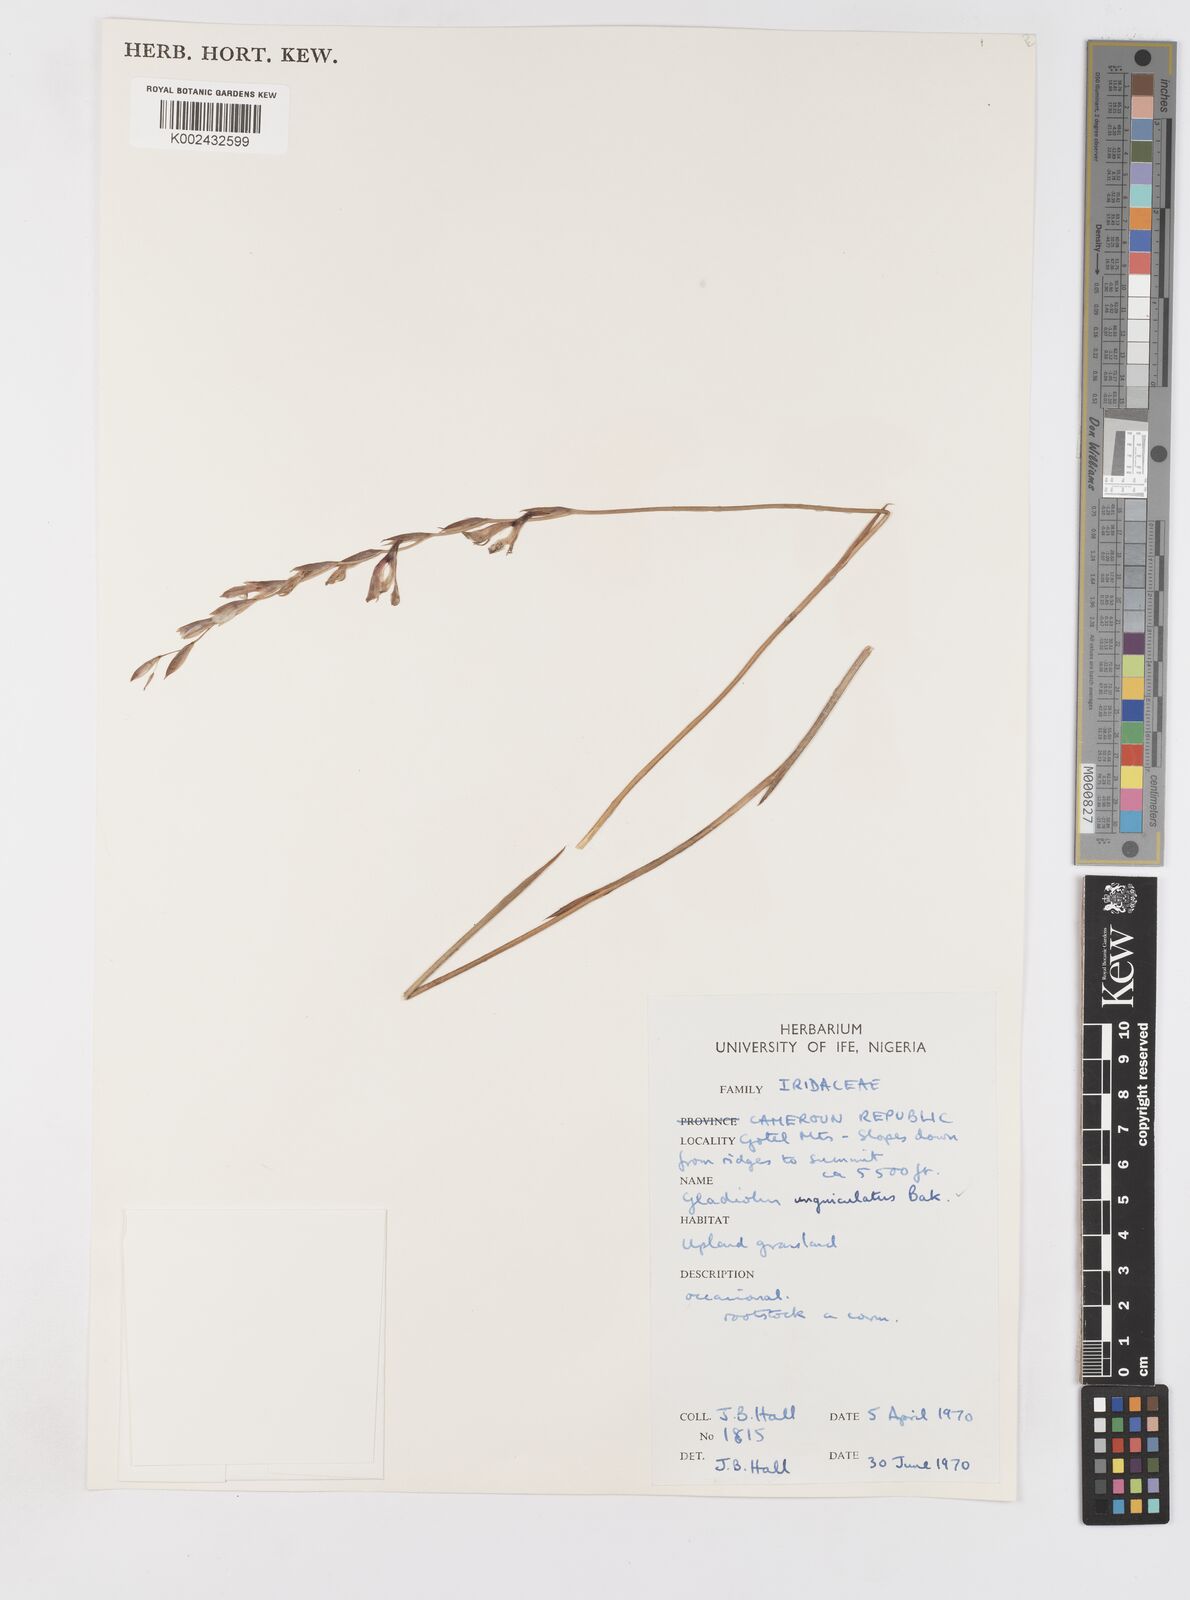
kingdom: Plantae
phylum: Tracheophyta
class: Liliopsida
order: Asparagales
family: Iridaceae
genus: Gladiolus
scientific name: Gladiolus unguiculatus
